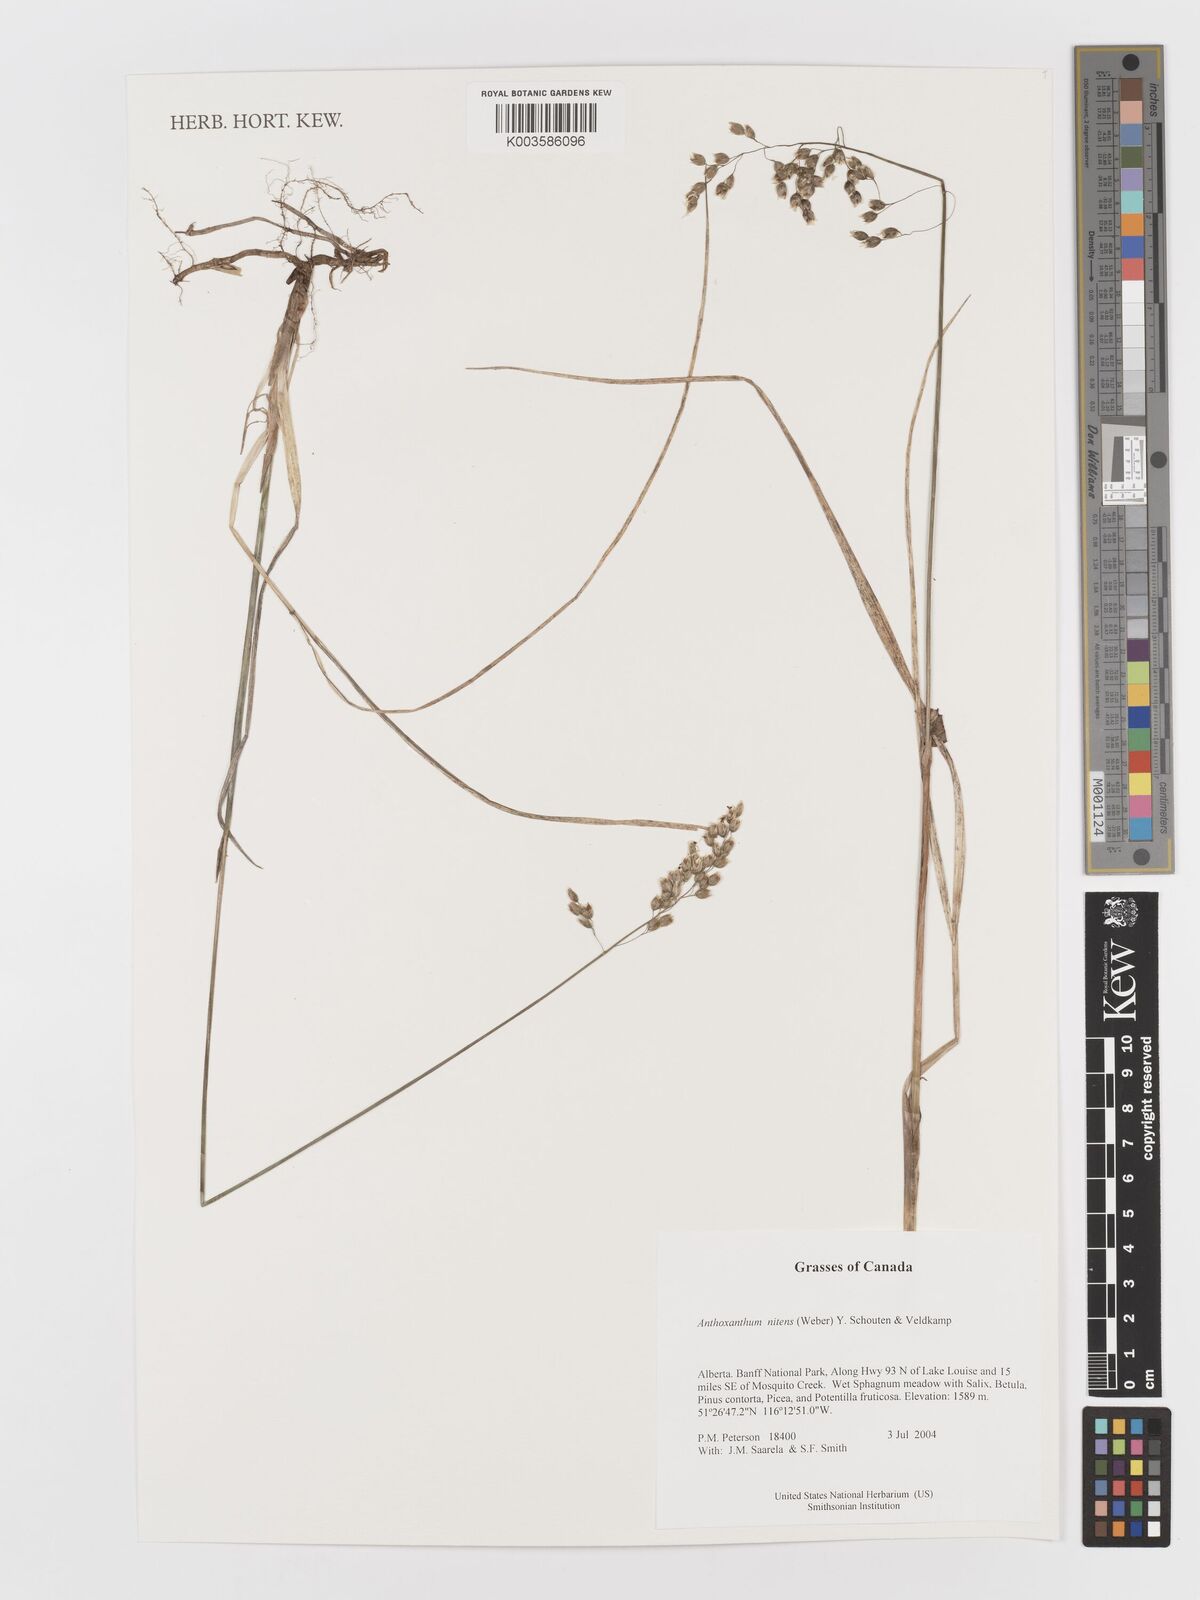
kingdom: Plantae
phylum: Tracheophyta
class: Liliopsida
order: Poales
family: Poaceae
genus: Anthoxanthum
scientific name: Anthoxanthum nitens
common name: Holy grass
